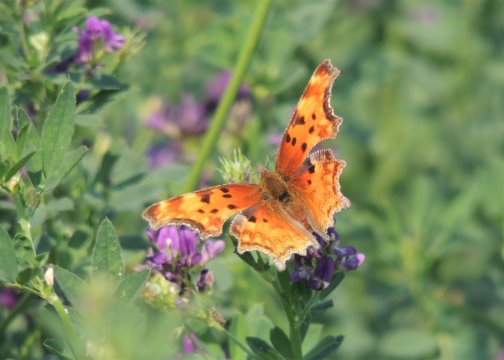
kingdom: Animalia
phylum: Arthropoda
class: Insecta
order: Lepidoptera
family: Nymphalidae
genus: Polygonia
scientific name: Polygonia gracilis
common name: Hoary Comma
